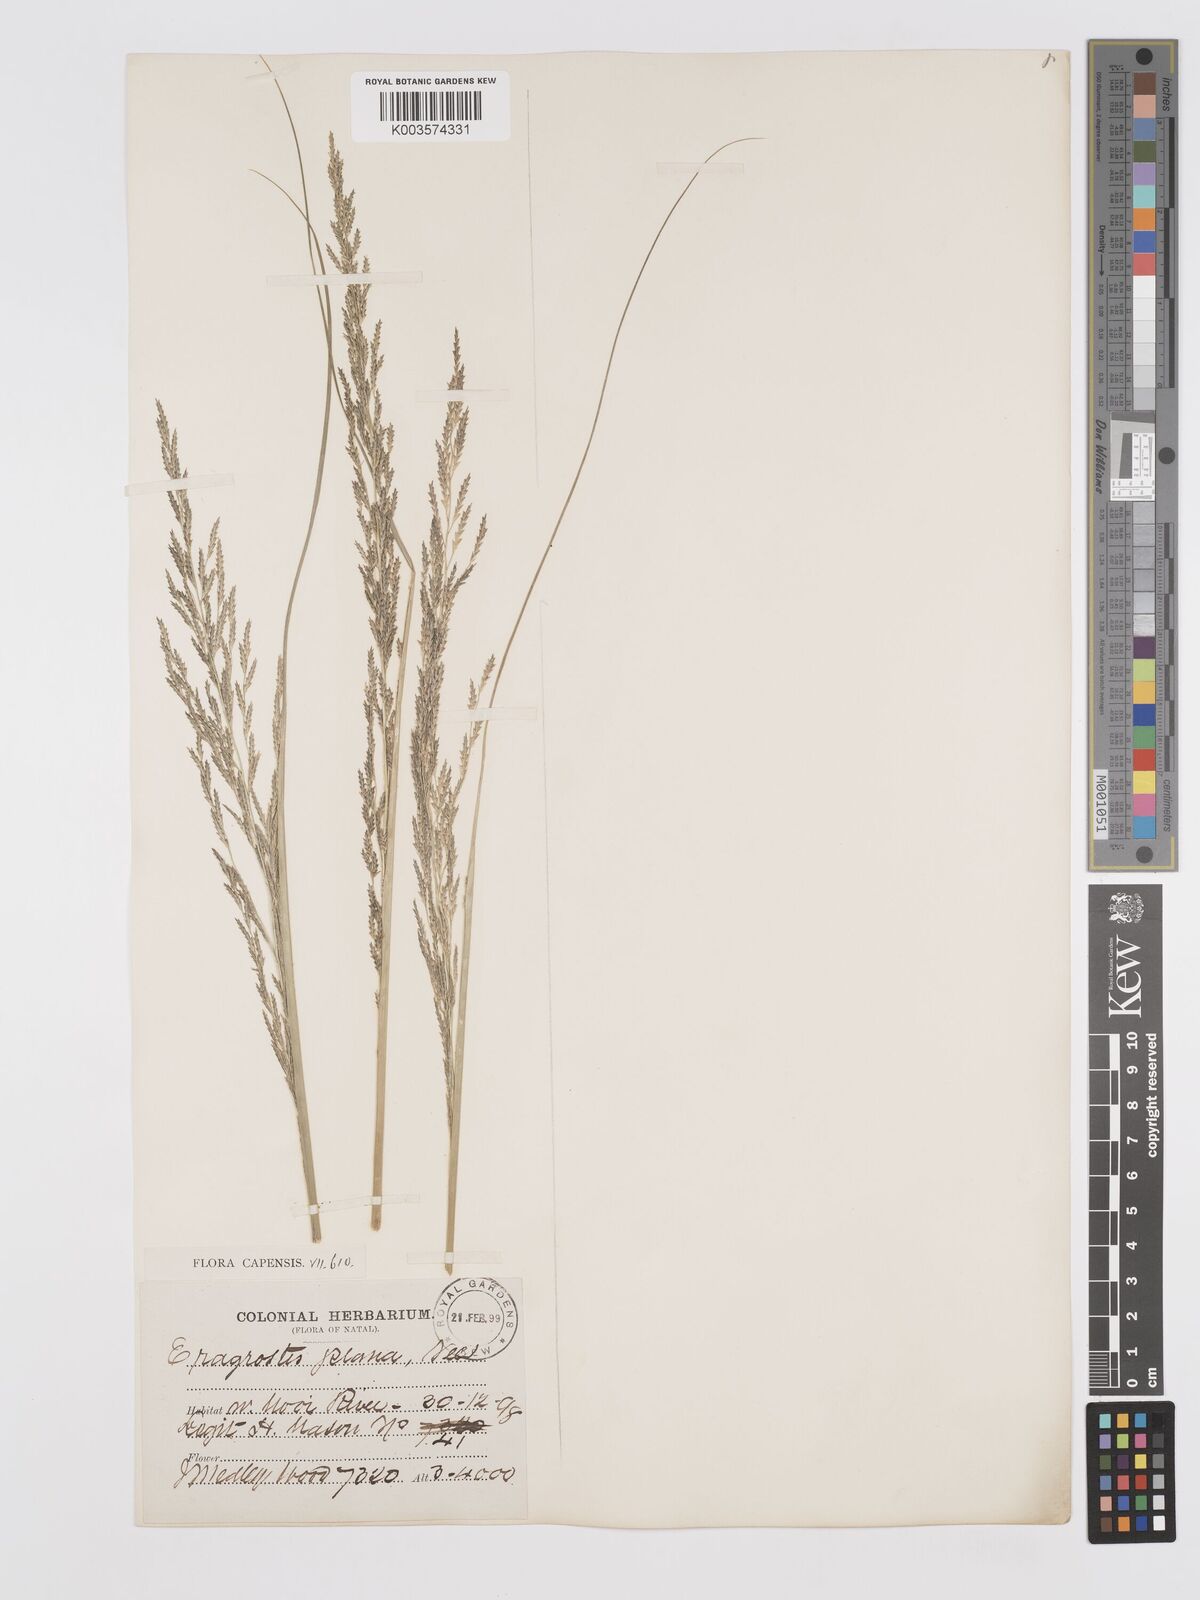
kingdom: Plantae
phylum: Tracheophyta
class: Liliopsida
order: Poales
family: Poaceae
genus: Eragrostis
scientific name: Eragrostis plana
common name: South african lovegrass
